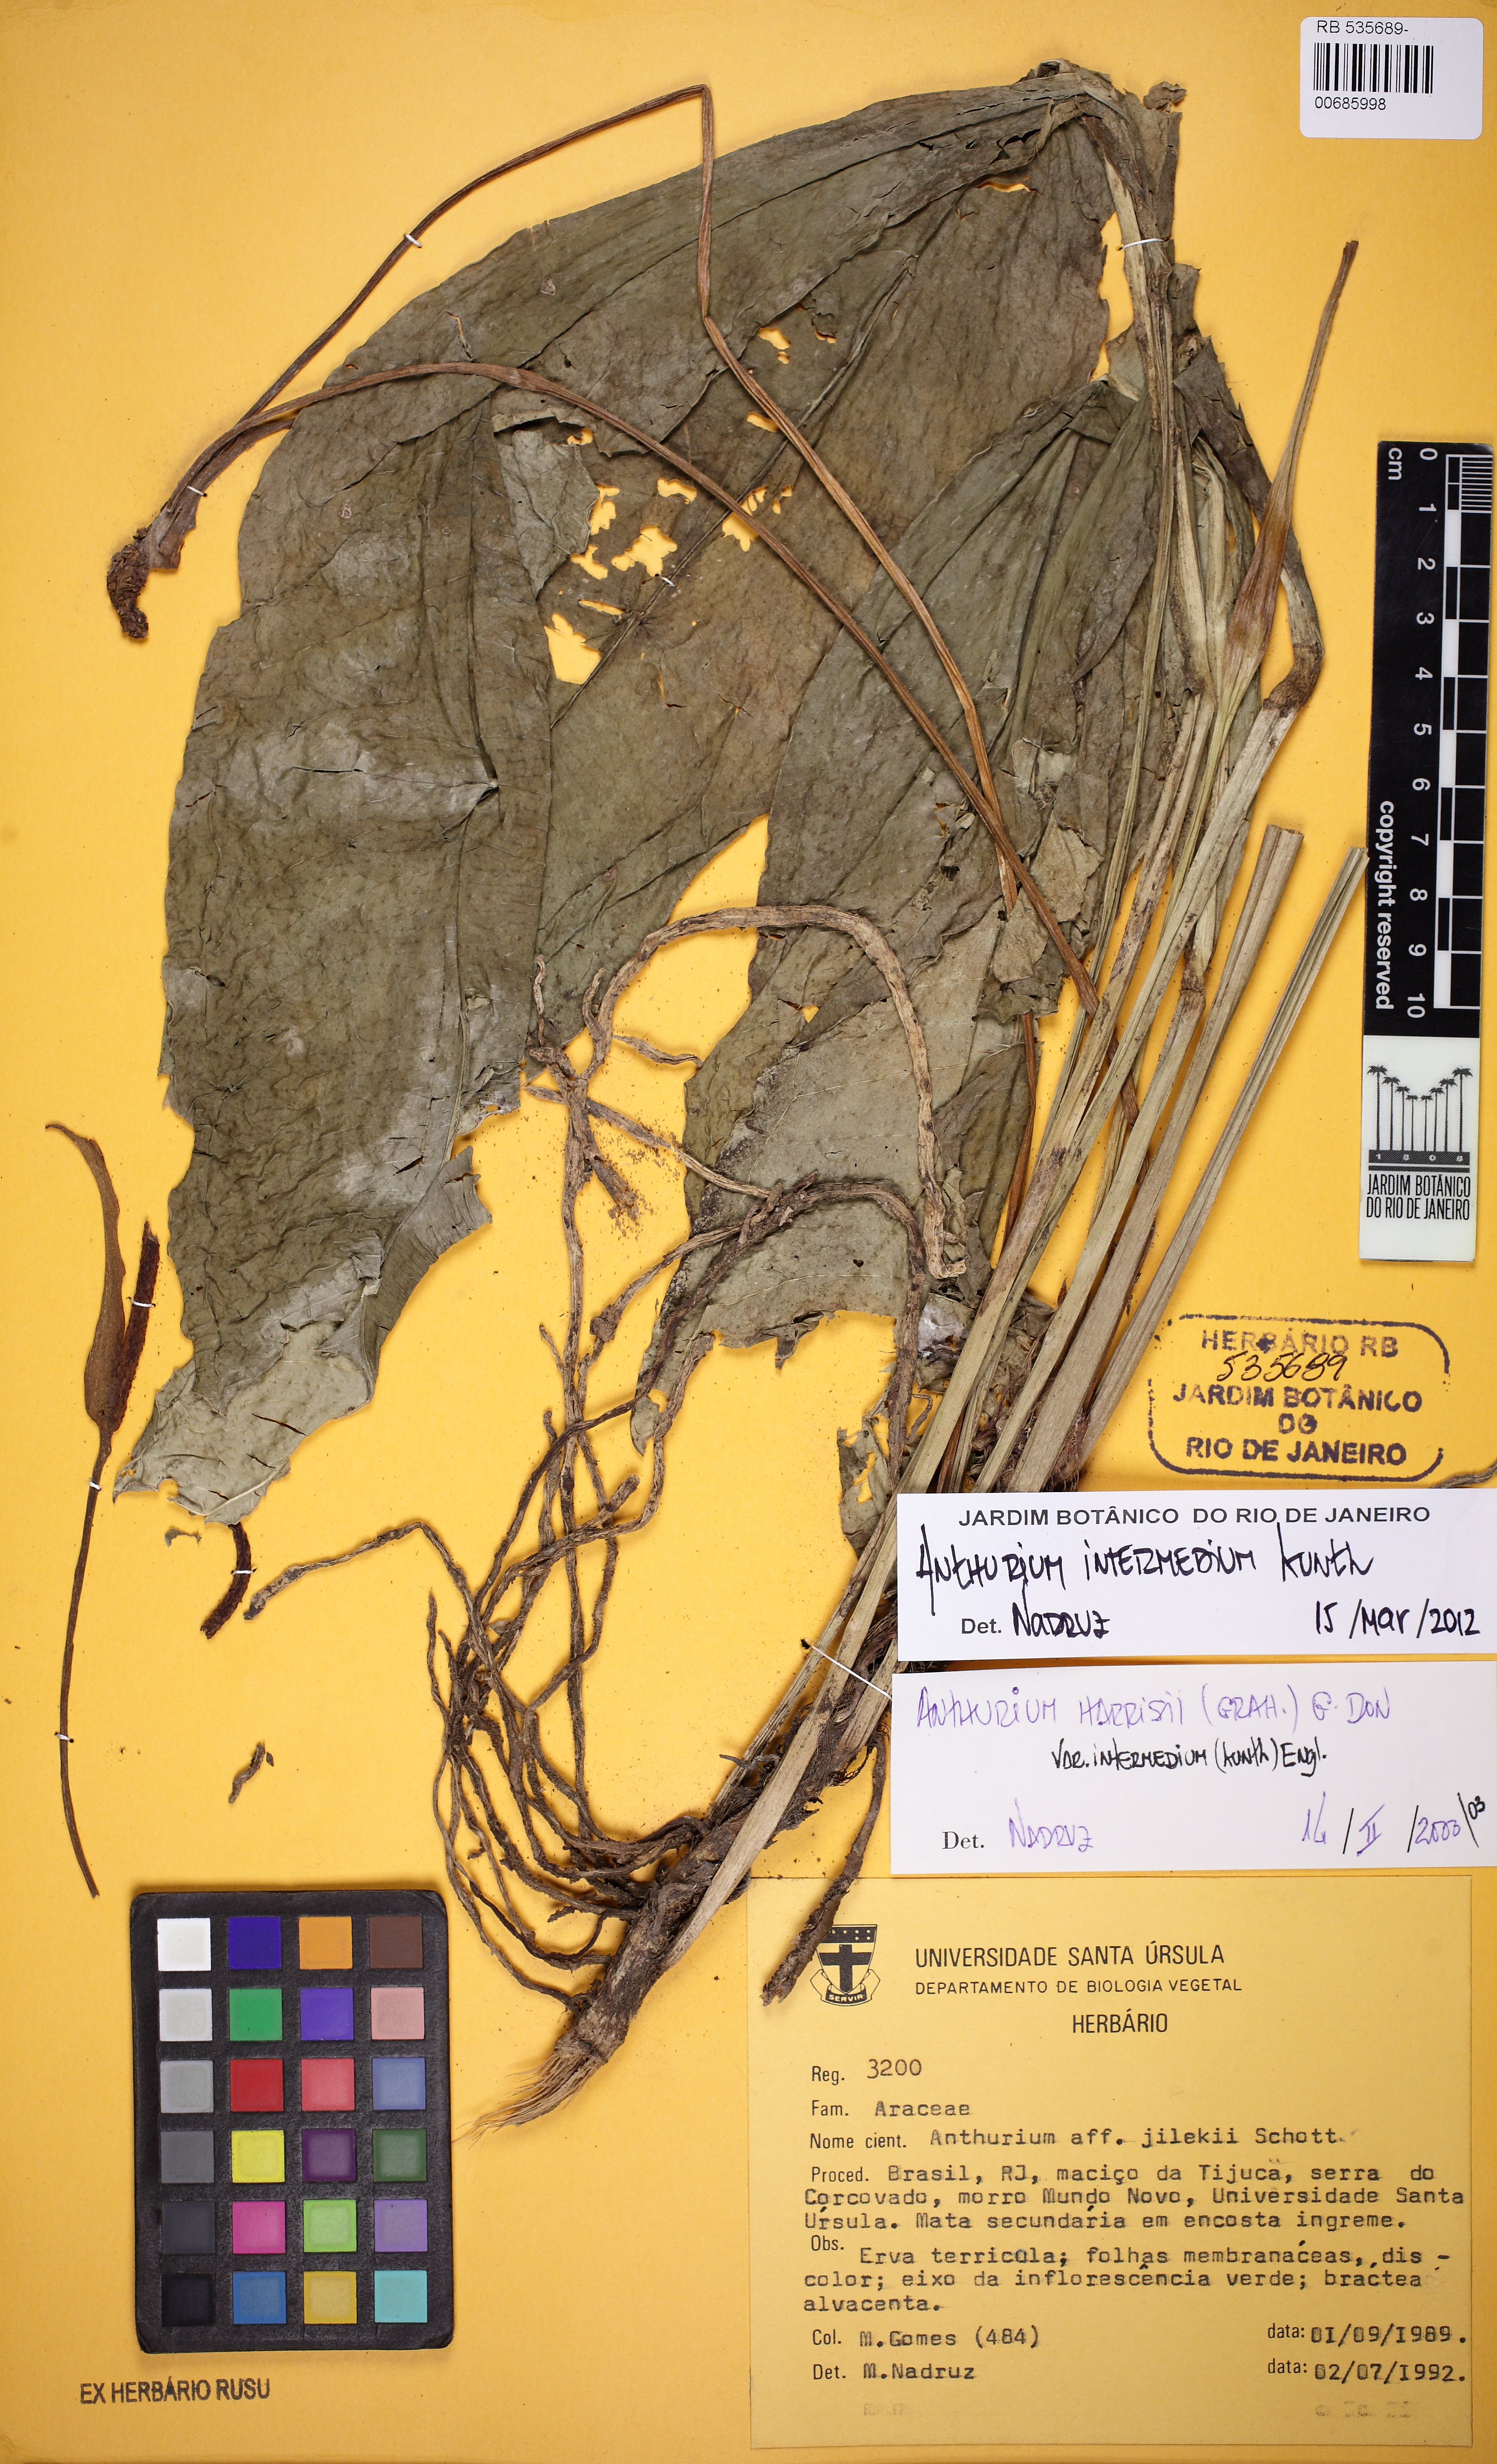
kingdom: Plantae
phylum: Tracheophyta
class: Liliopsida
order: Alismatales
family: Araceae
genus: Anthurium
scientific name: Anthurium intermedium
